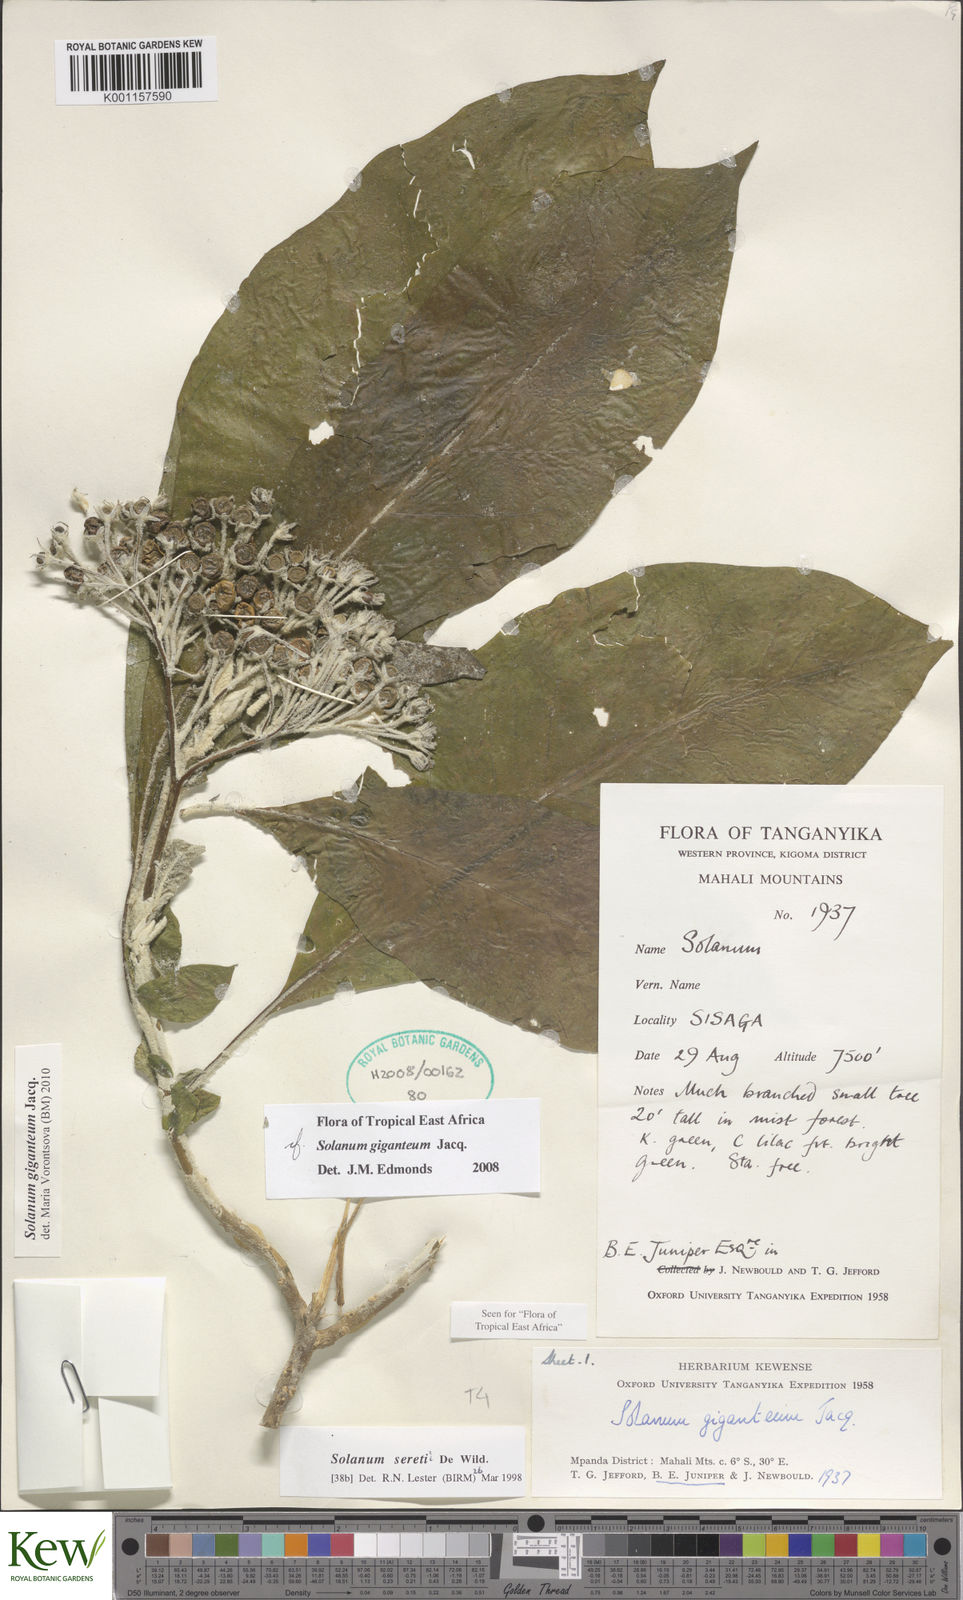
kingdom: Plantae
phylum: Tracheophyta
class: Magnoliopsida
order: Solanales
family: Solanaceae
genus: Solanum
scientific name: Solanum giganteum
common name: Healing-leaf-tree
